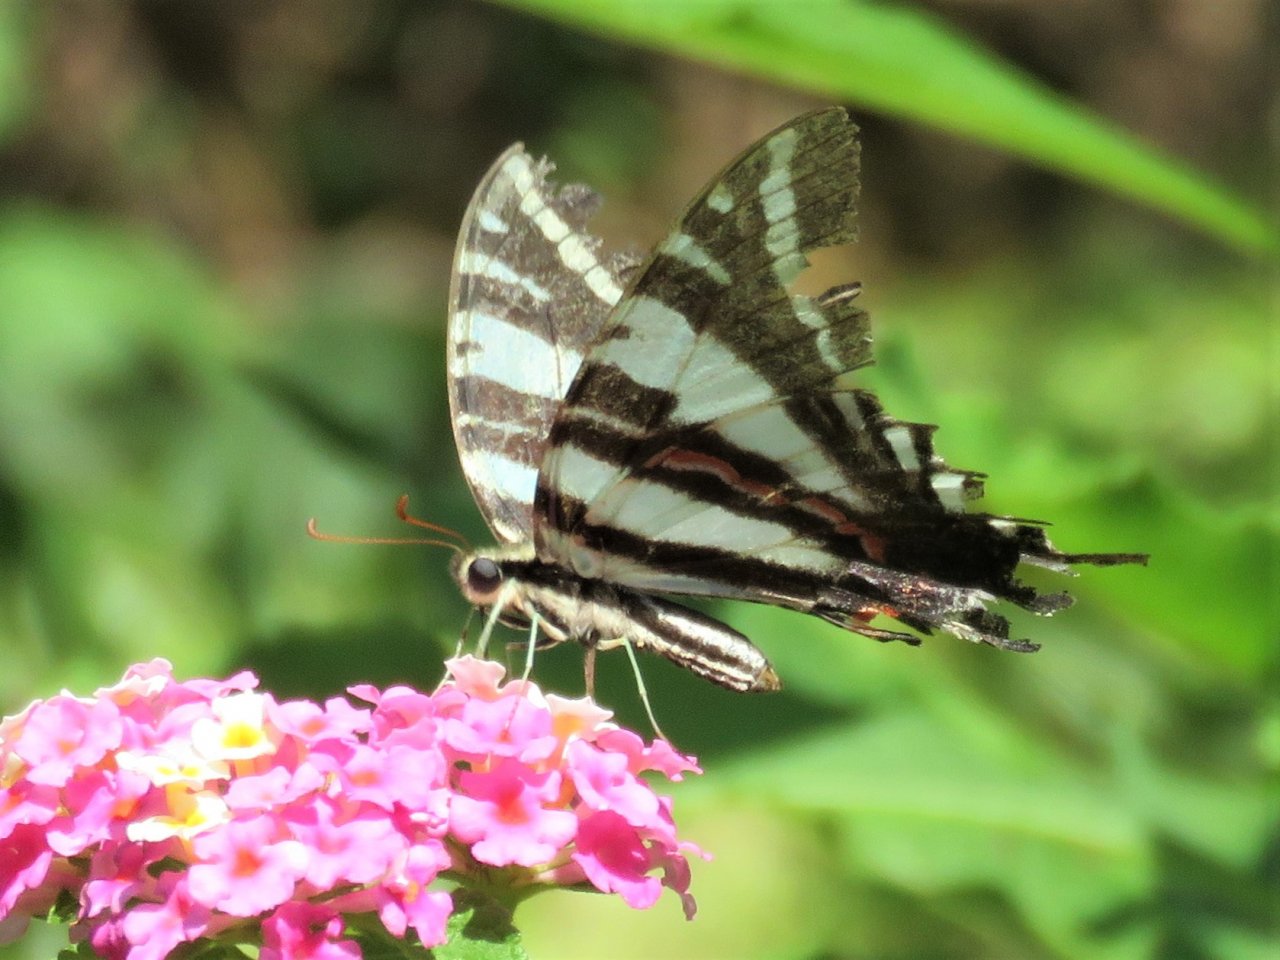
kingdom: Animalia
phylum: Arthropoda
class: Insecta
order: Lepidoptera
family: Papilionidae
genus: Protographium
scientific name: Protographium marcellus
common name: Zebra Swallowtail
